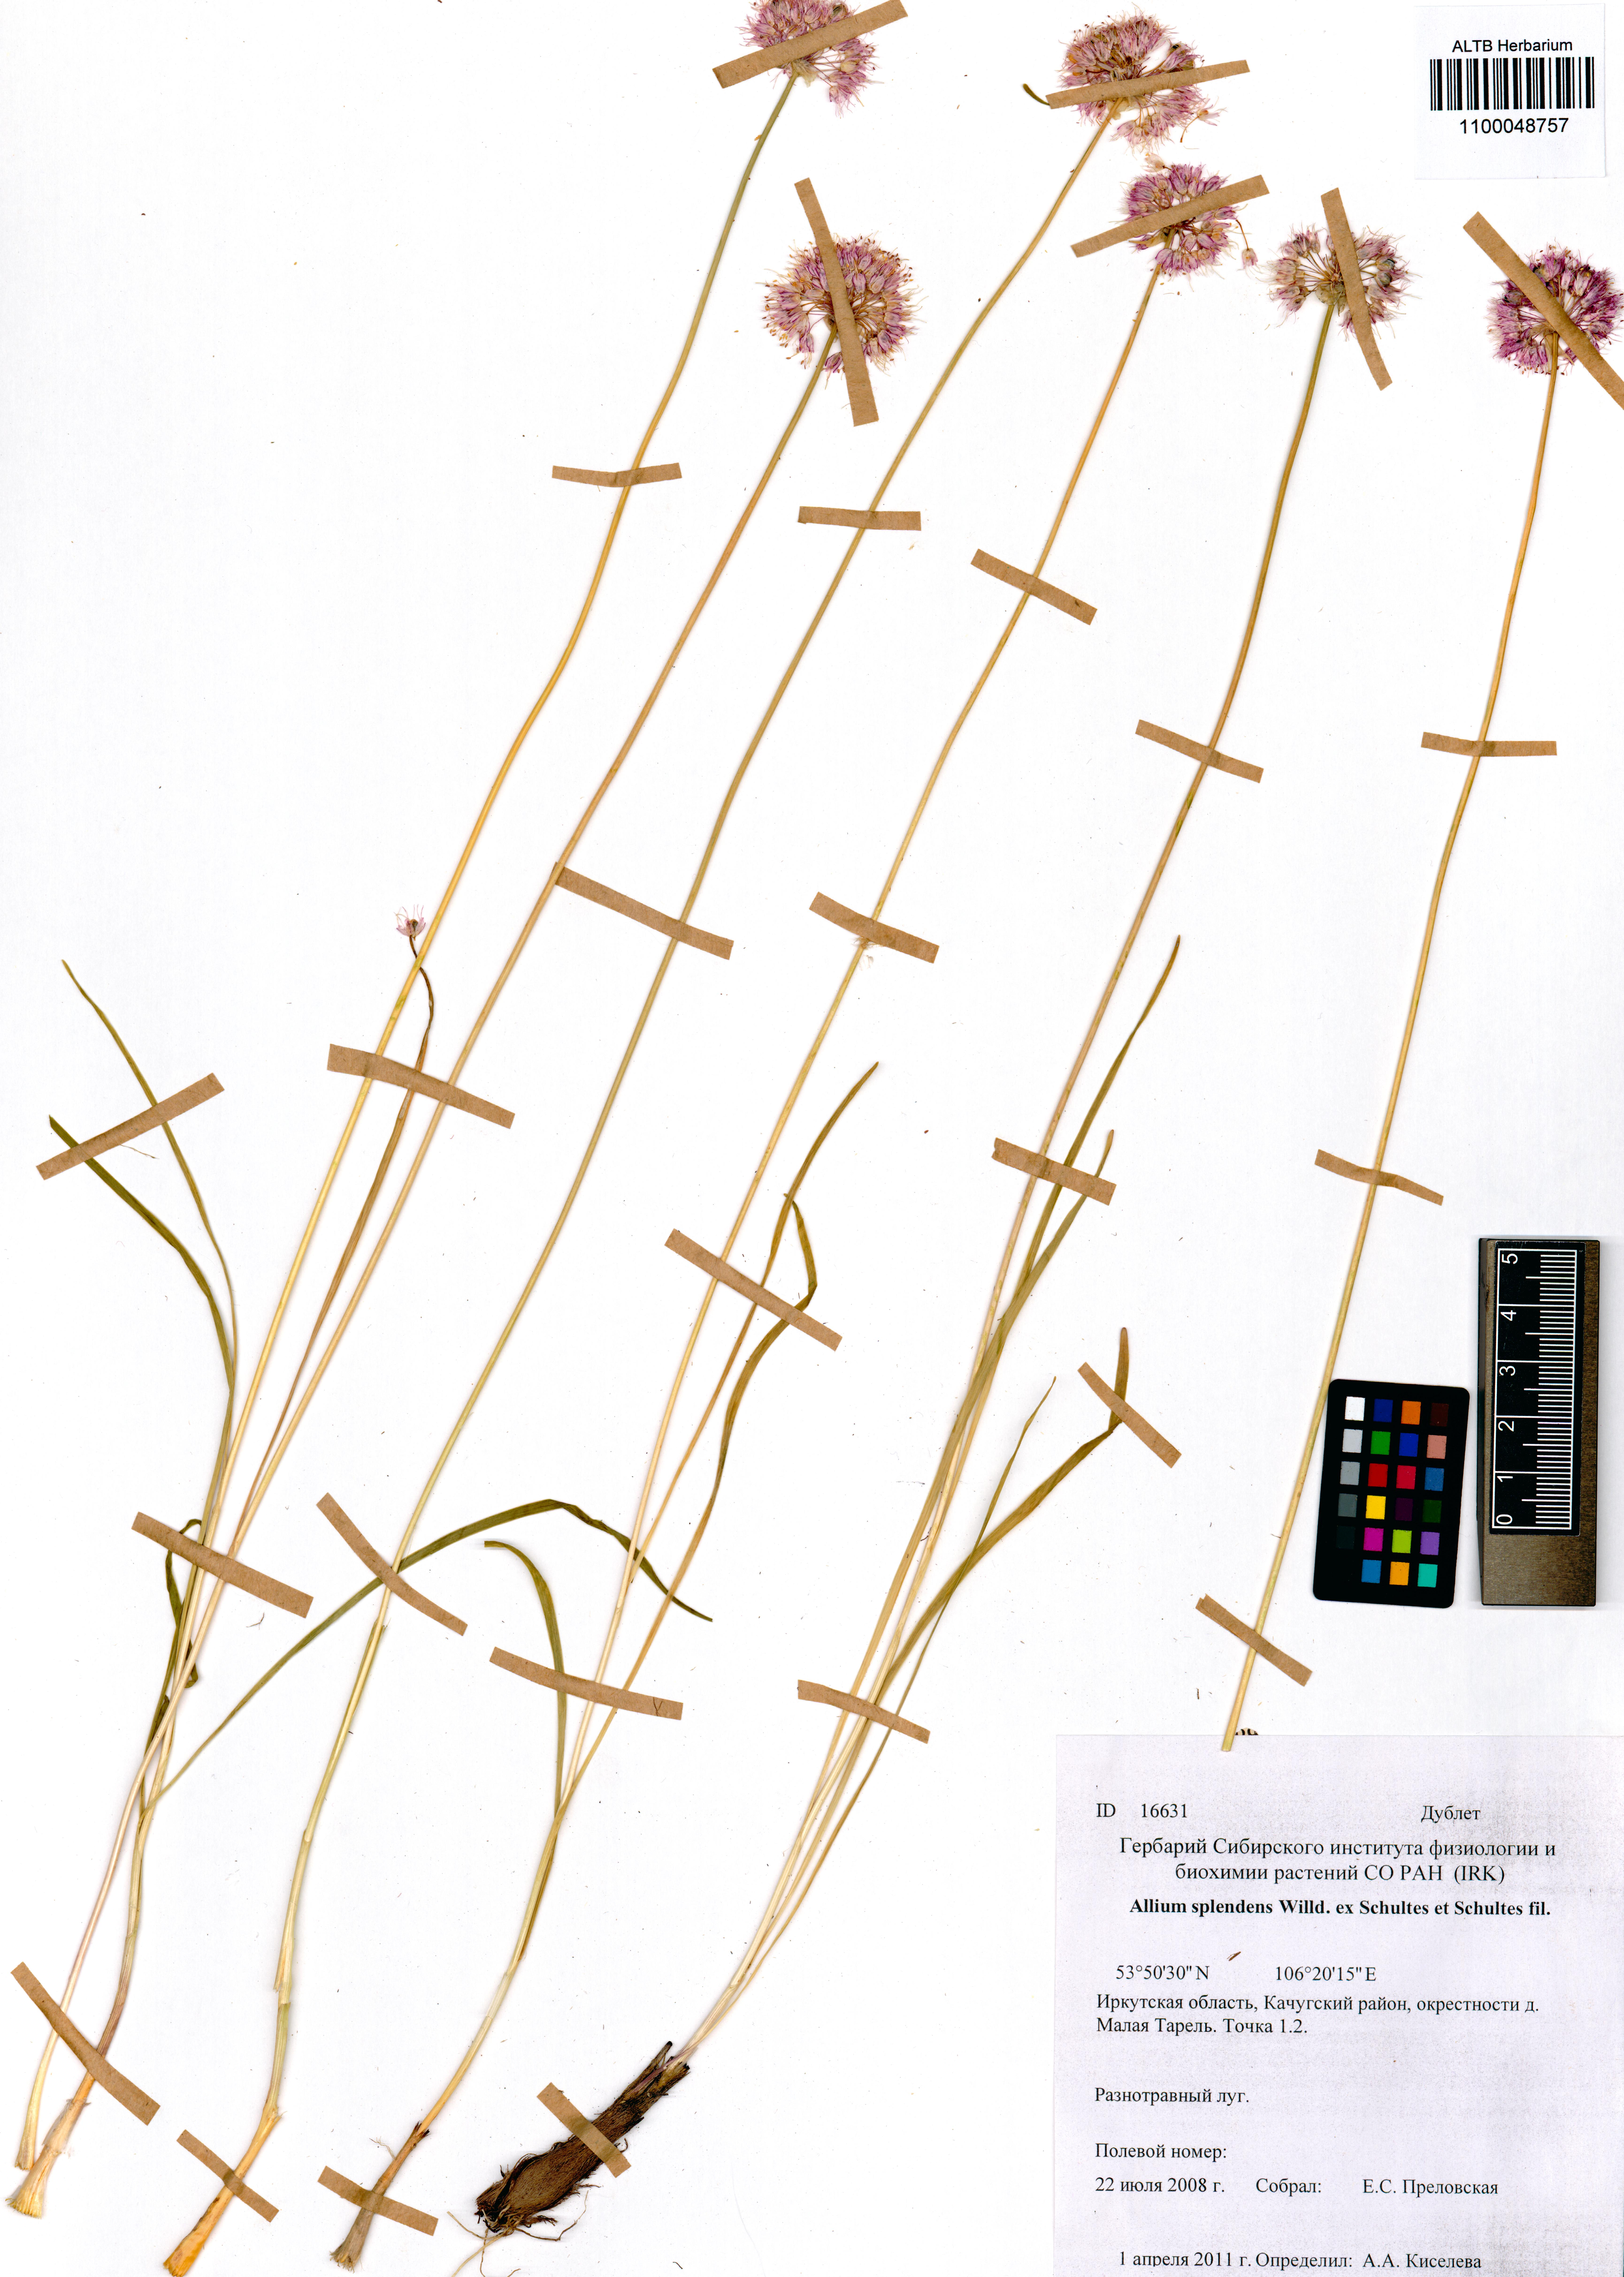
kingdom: Plantae
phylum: Tracheophyta
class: Liliopsida
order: Asparagales
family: Amaryllidaceae
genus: Allium
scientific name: Allium splendens
